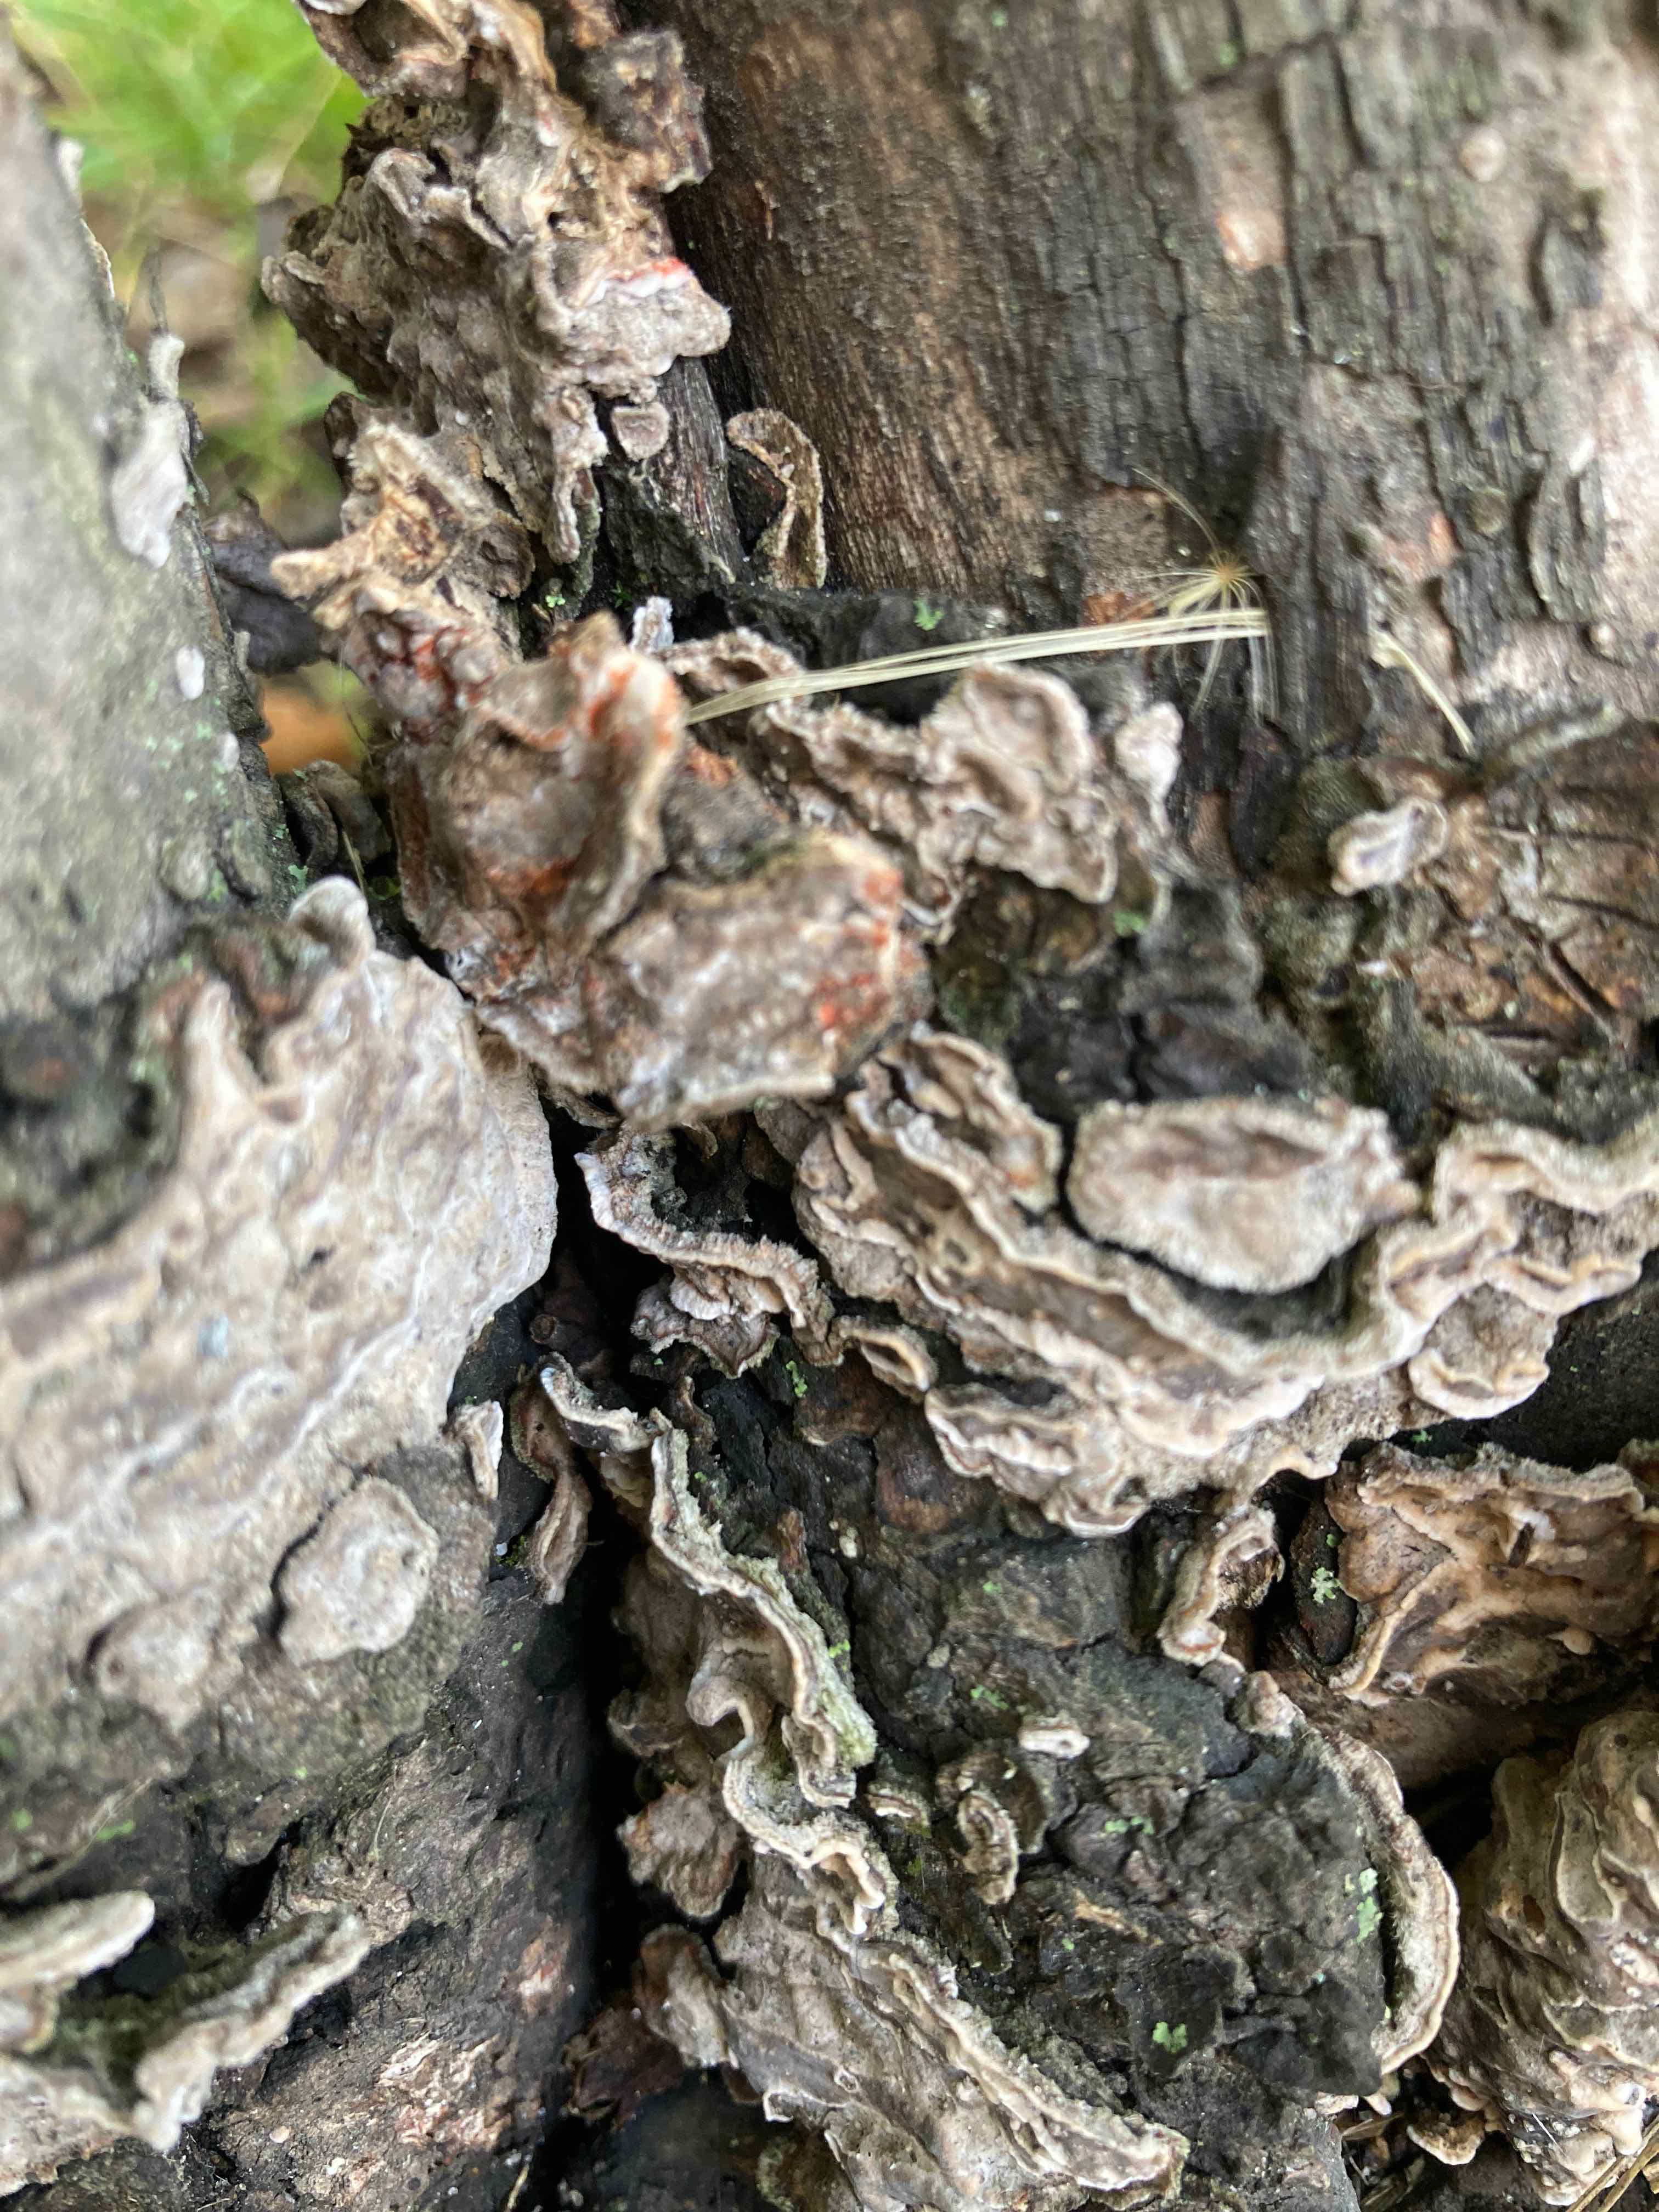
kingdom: Fungi
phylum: Basidiomycota
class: Agaricomycetes
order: Russulales
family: Stereaceae
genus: Stereum
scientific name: Stereum rugosum
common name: rynket lædersvamp
